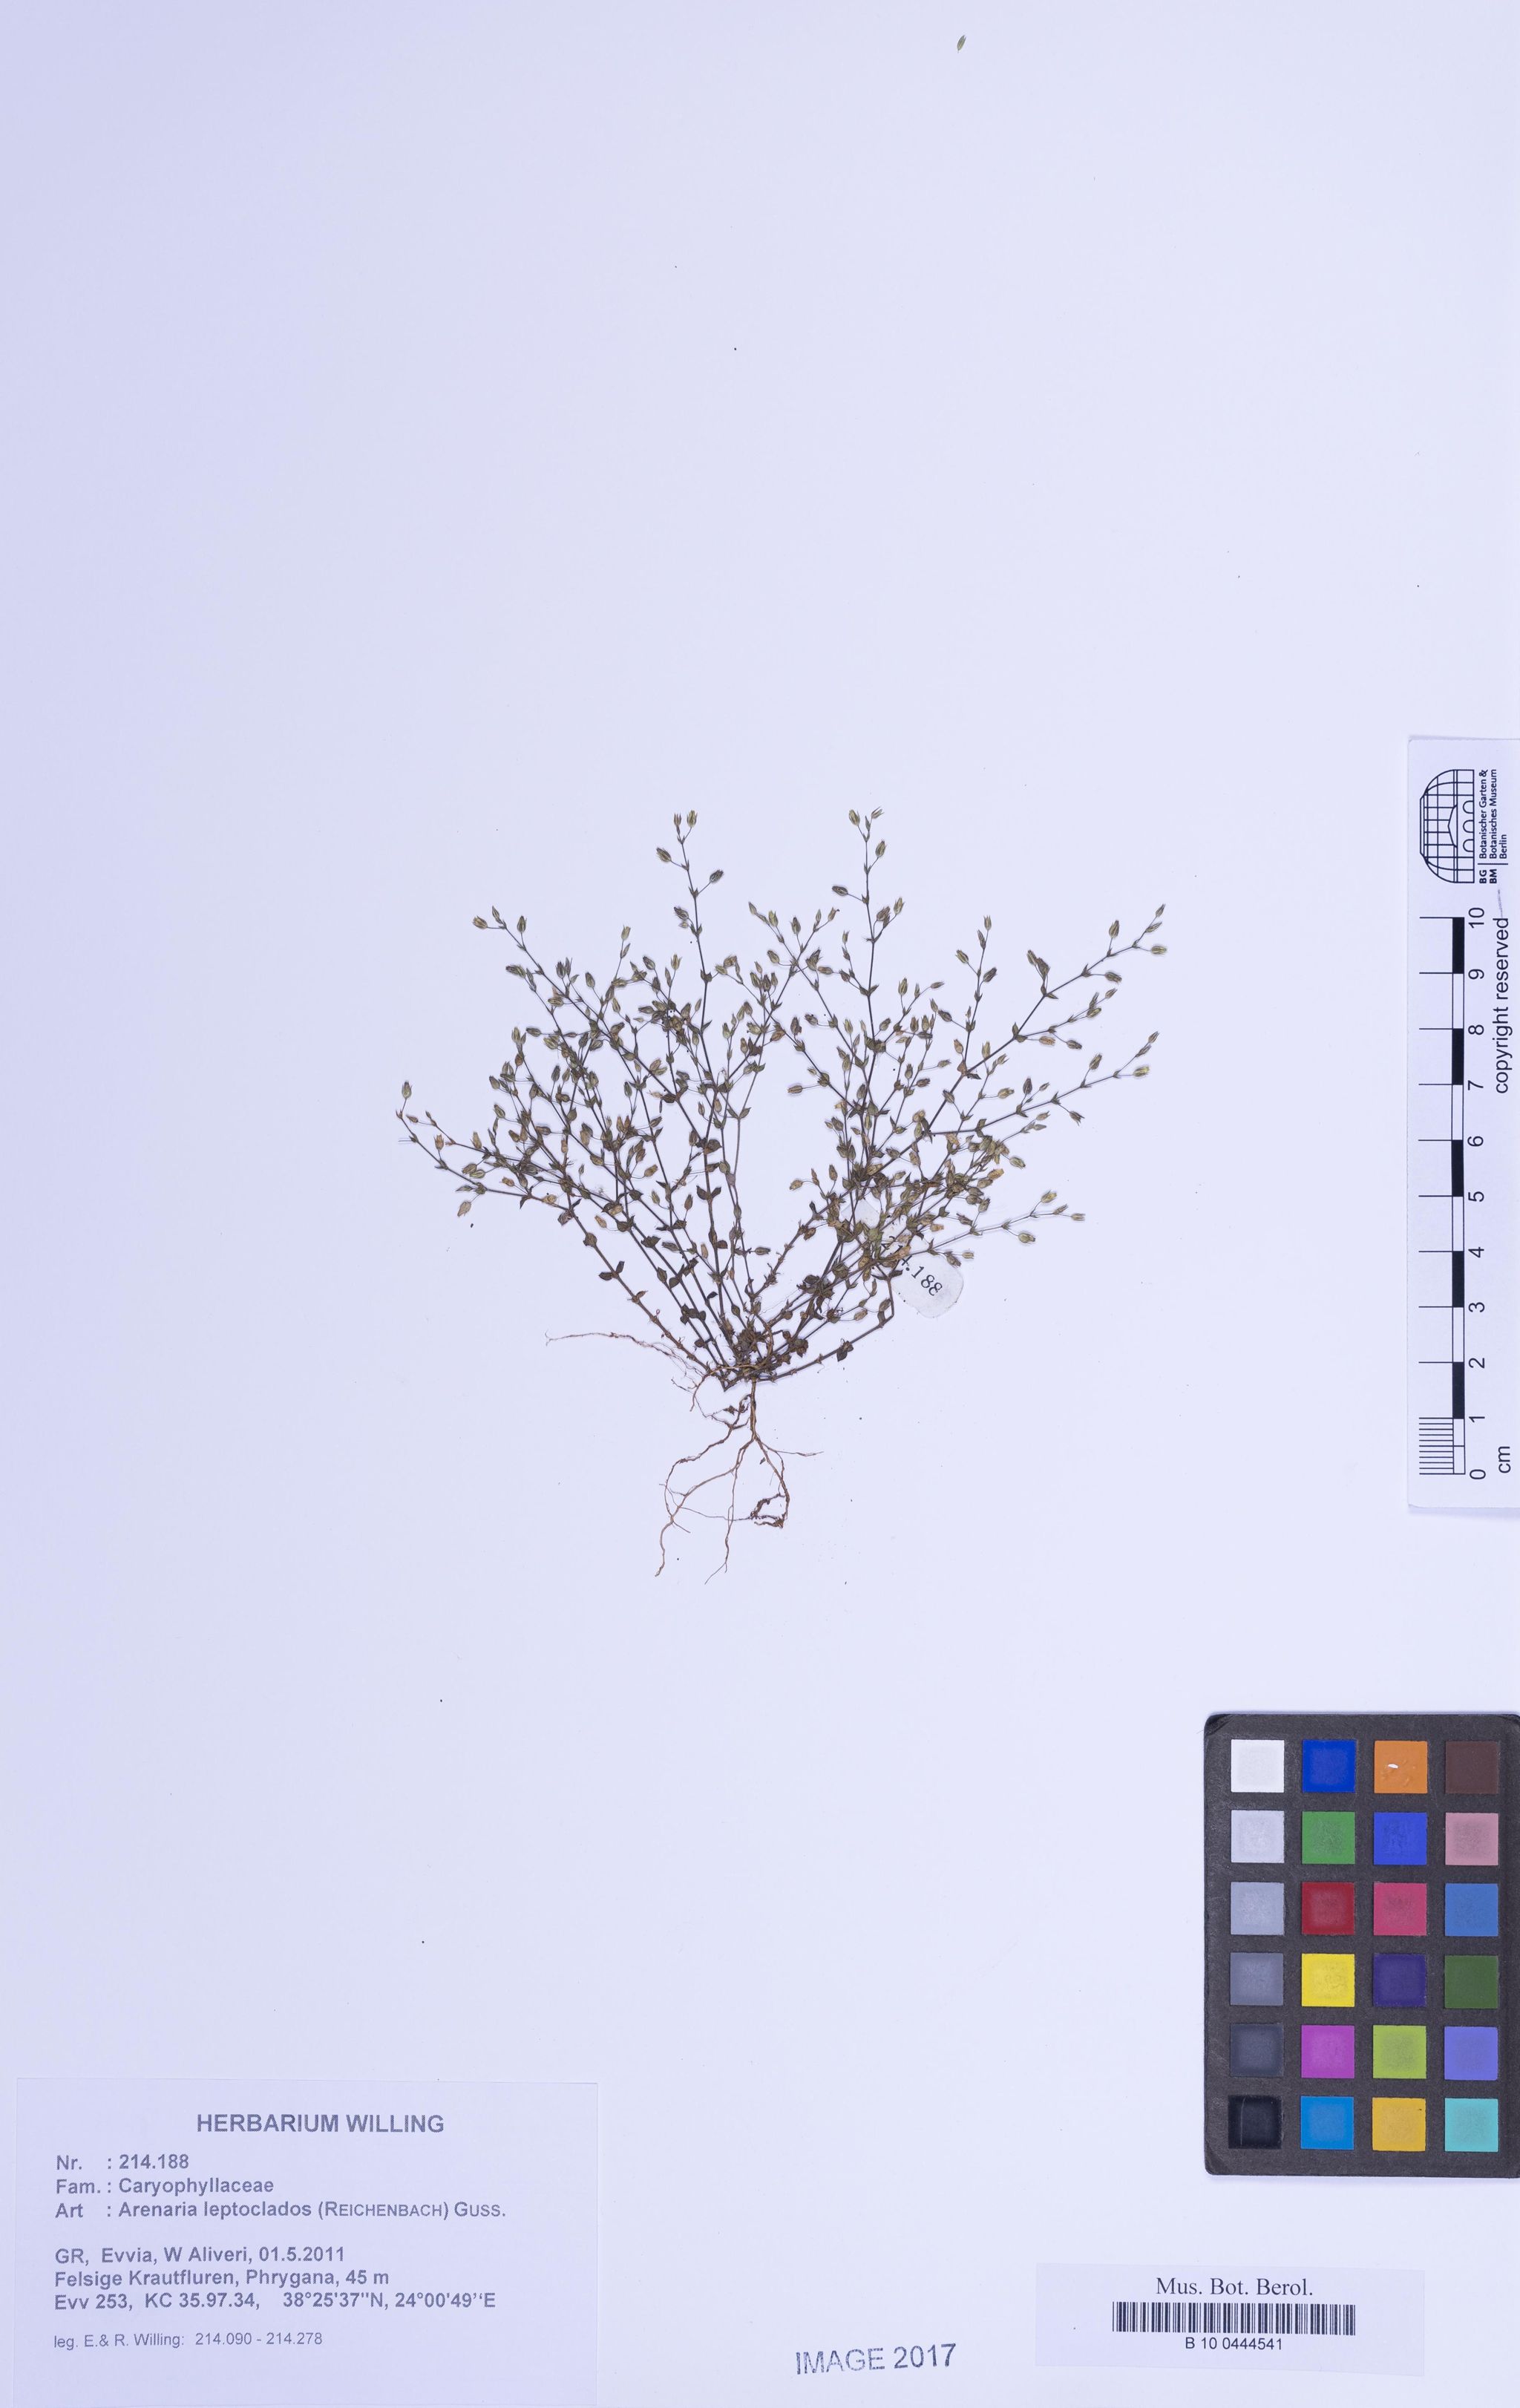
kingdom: Plantae
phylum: Tracheophyta
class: Magnoliopsida
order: Caryophyllales
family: Caryophyllaceae
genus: Arenaria
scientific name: Arenaria leptoclados
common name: Thyme-leaved sandwort
